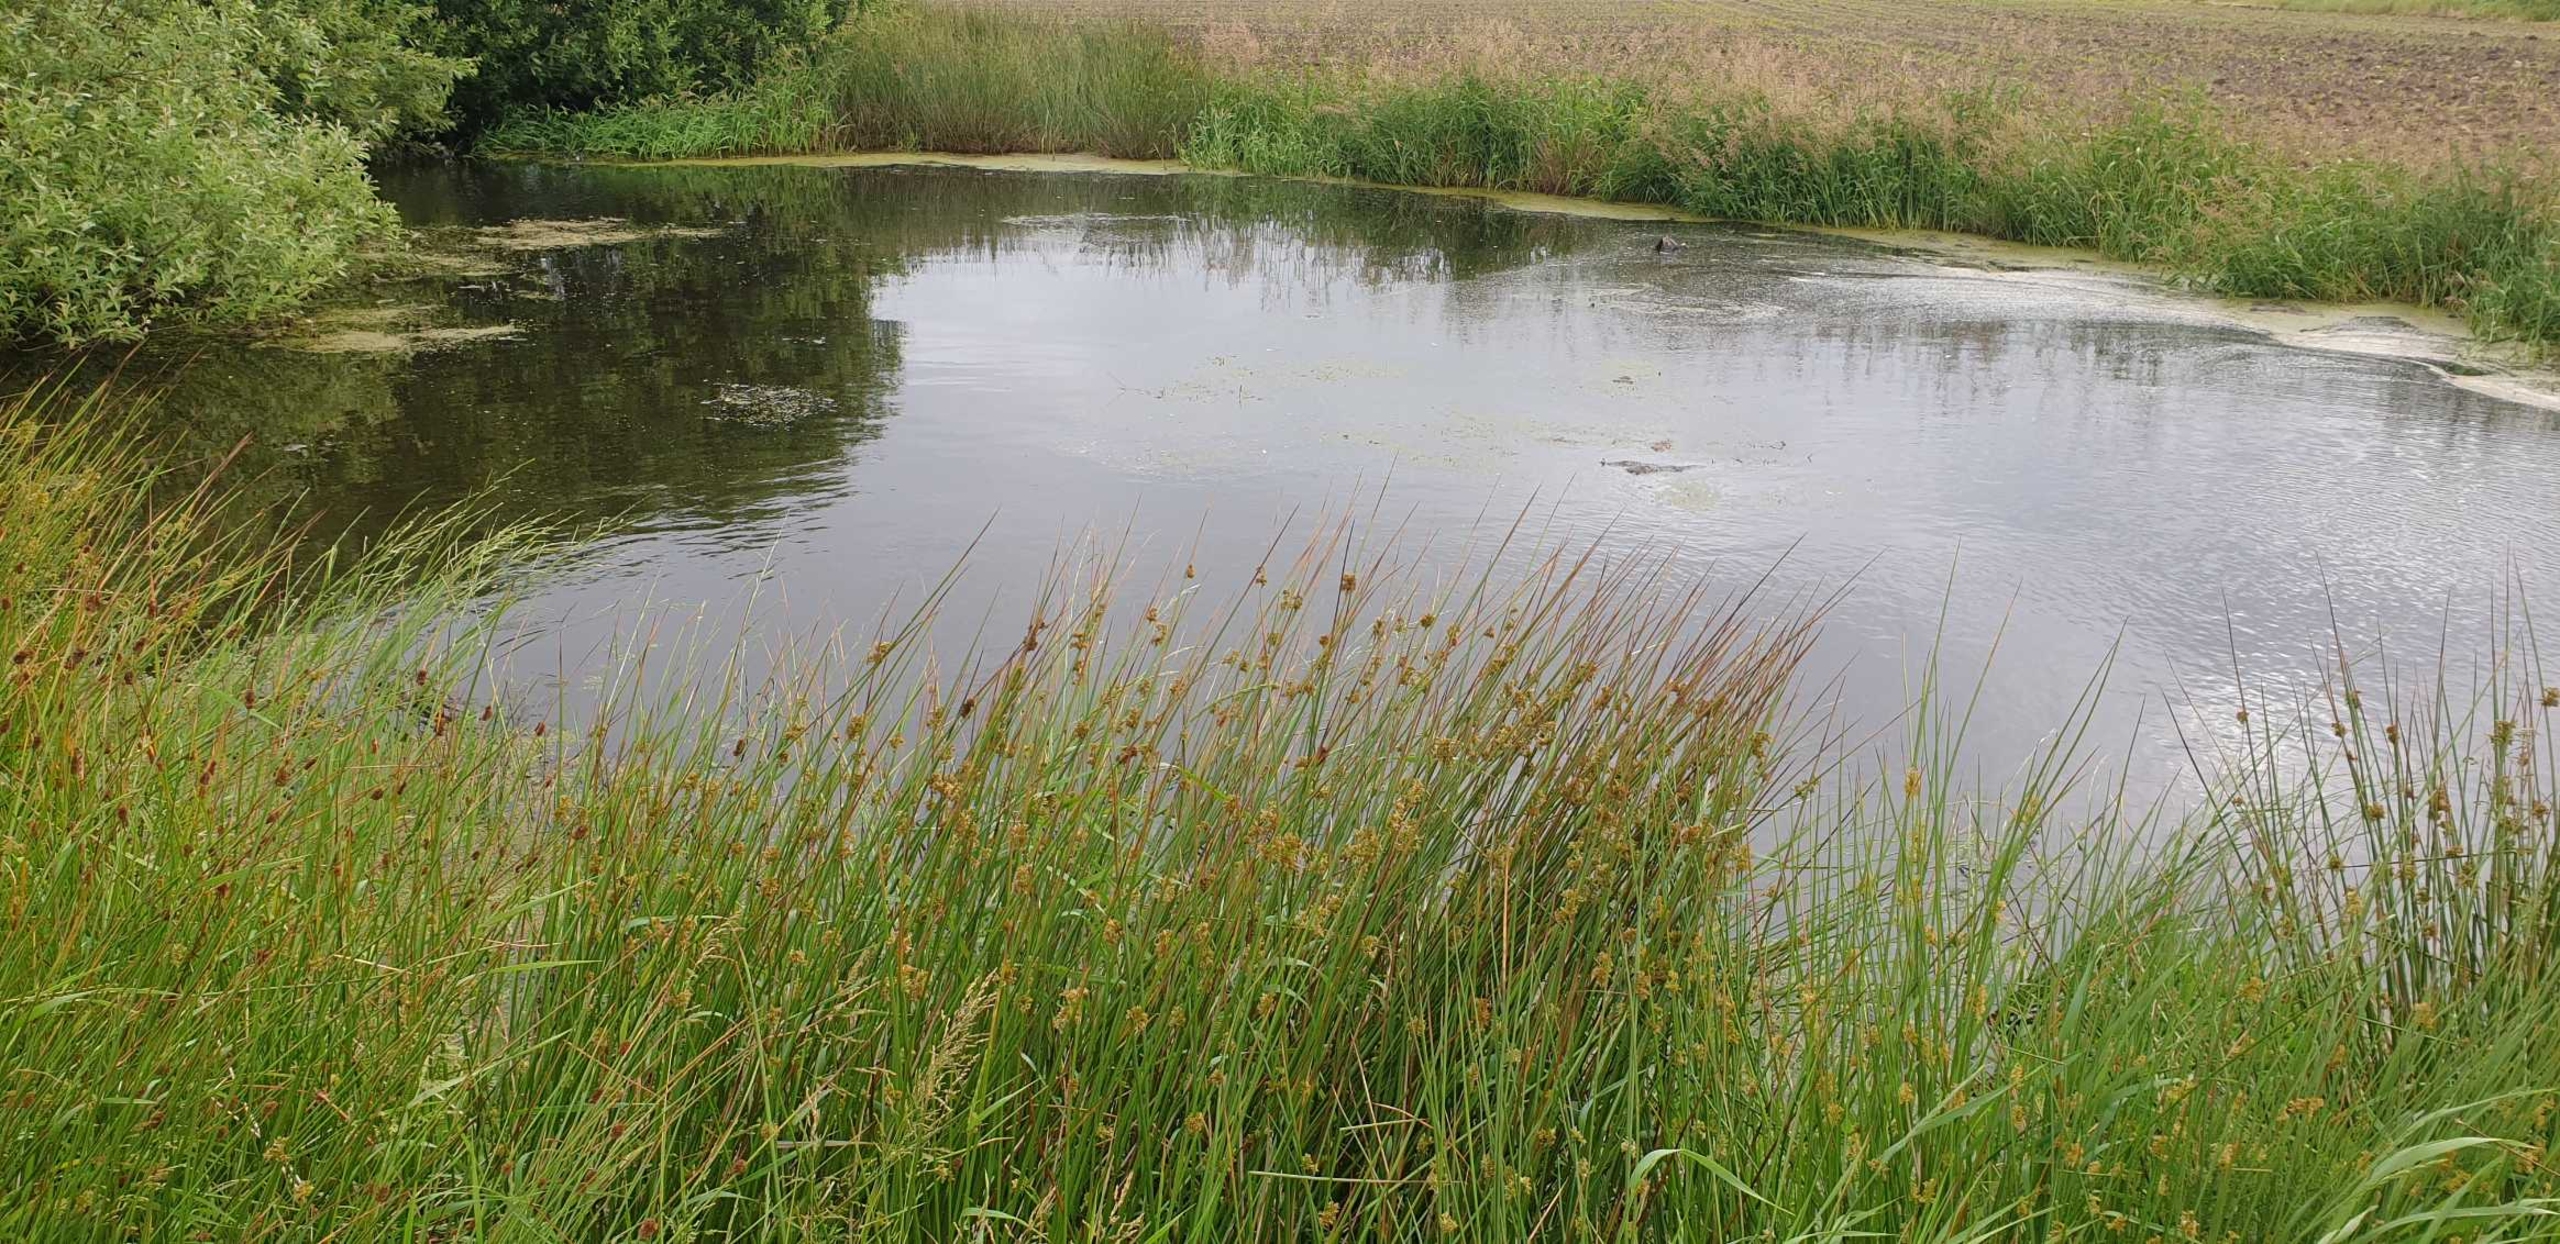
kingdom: Plantae
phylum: Tracheophyta
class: Liliopsida
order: Poales
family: Juncaceae
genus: Juncus
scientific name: Juncus effusus
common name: Lyse-siv
